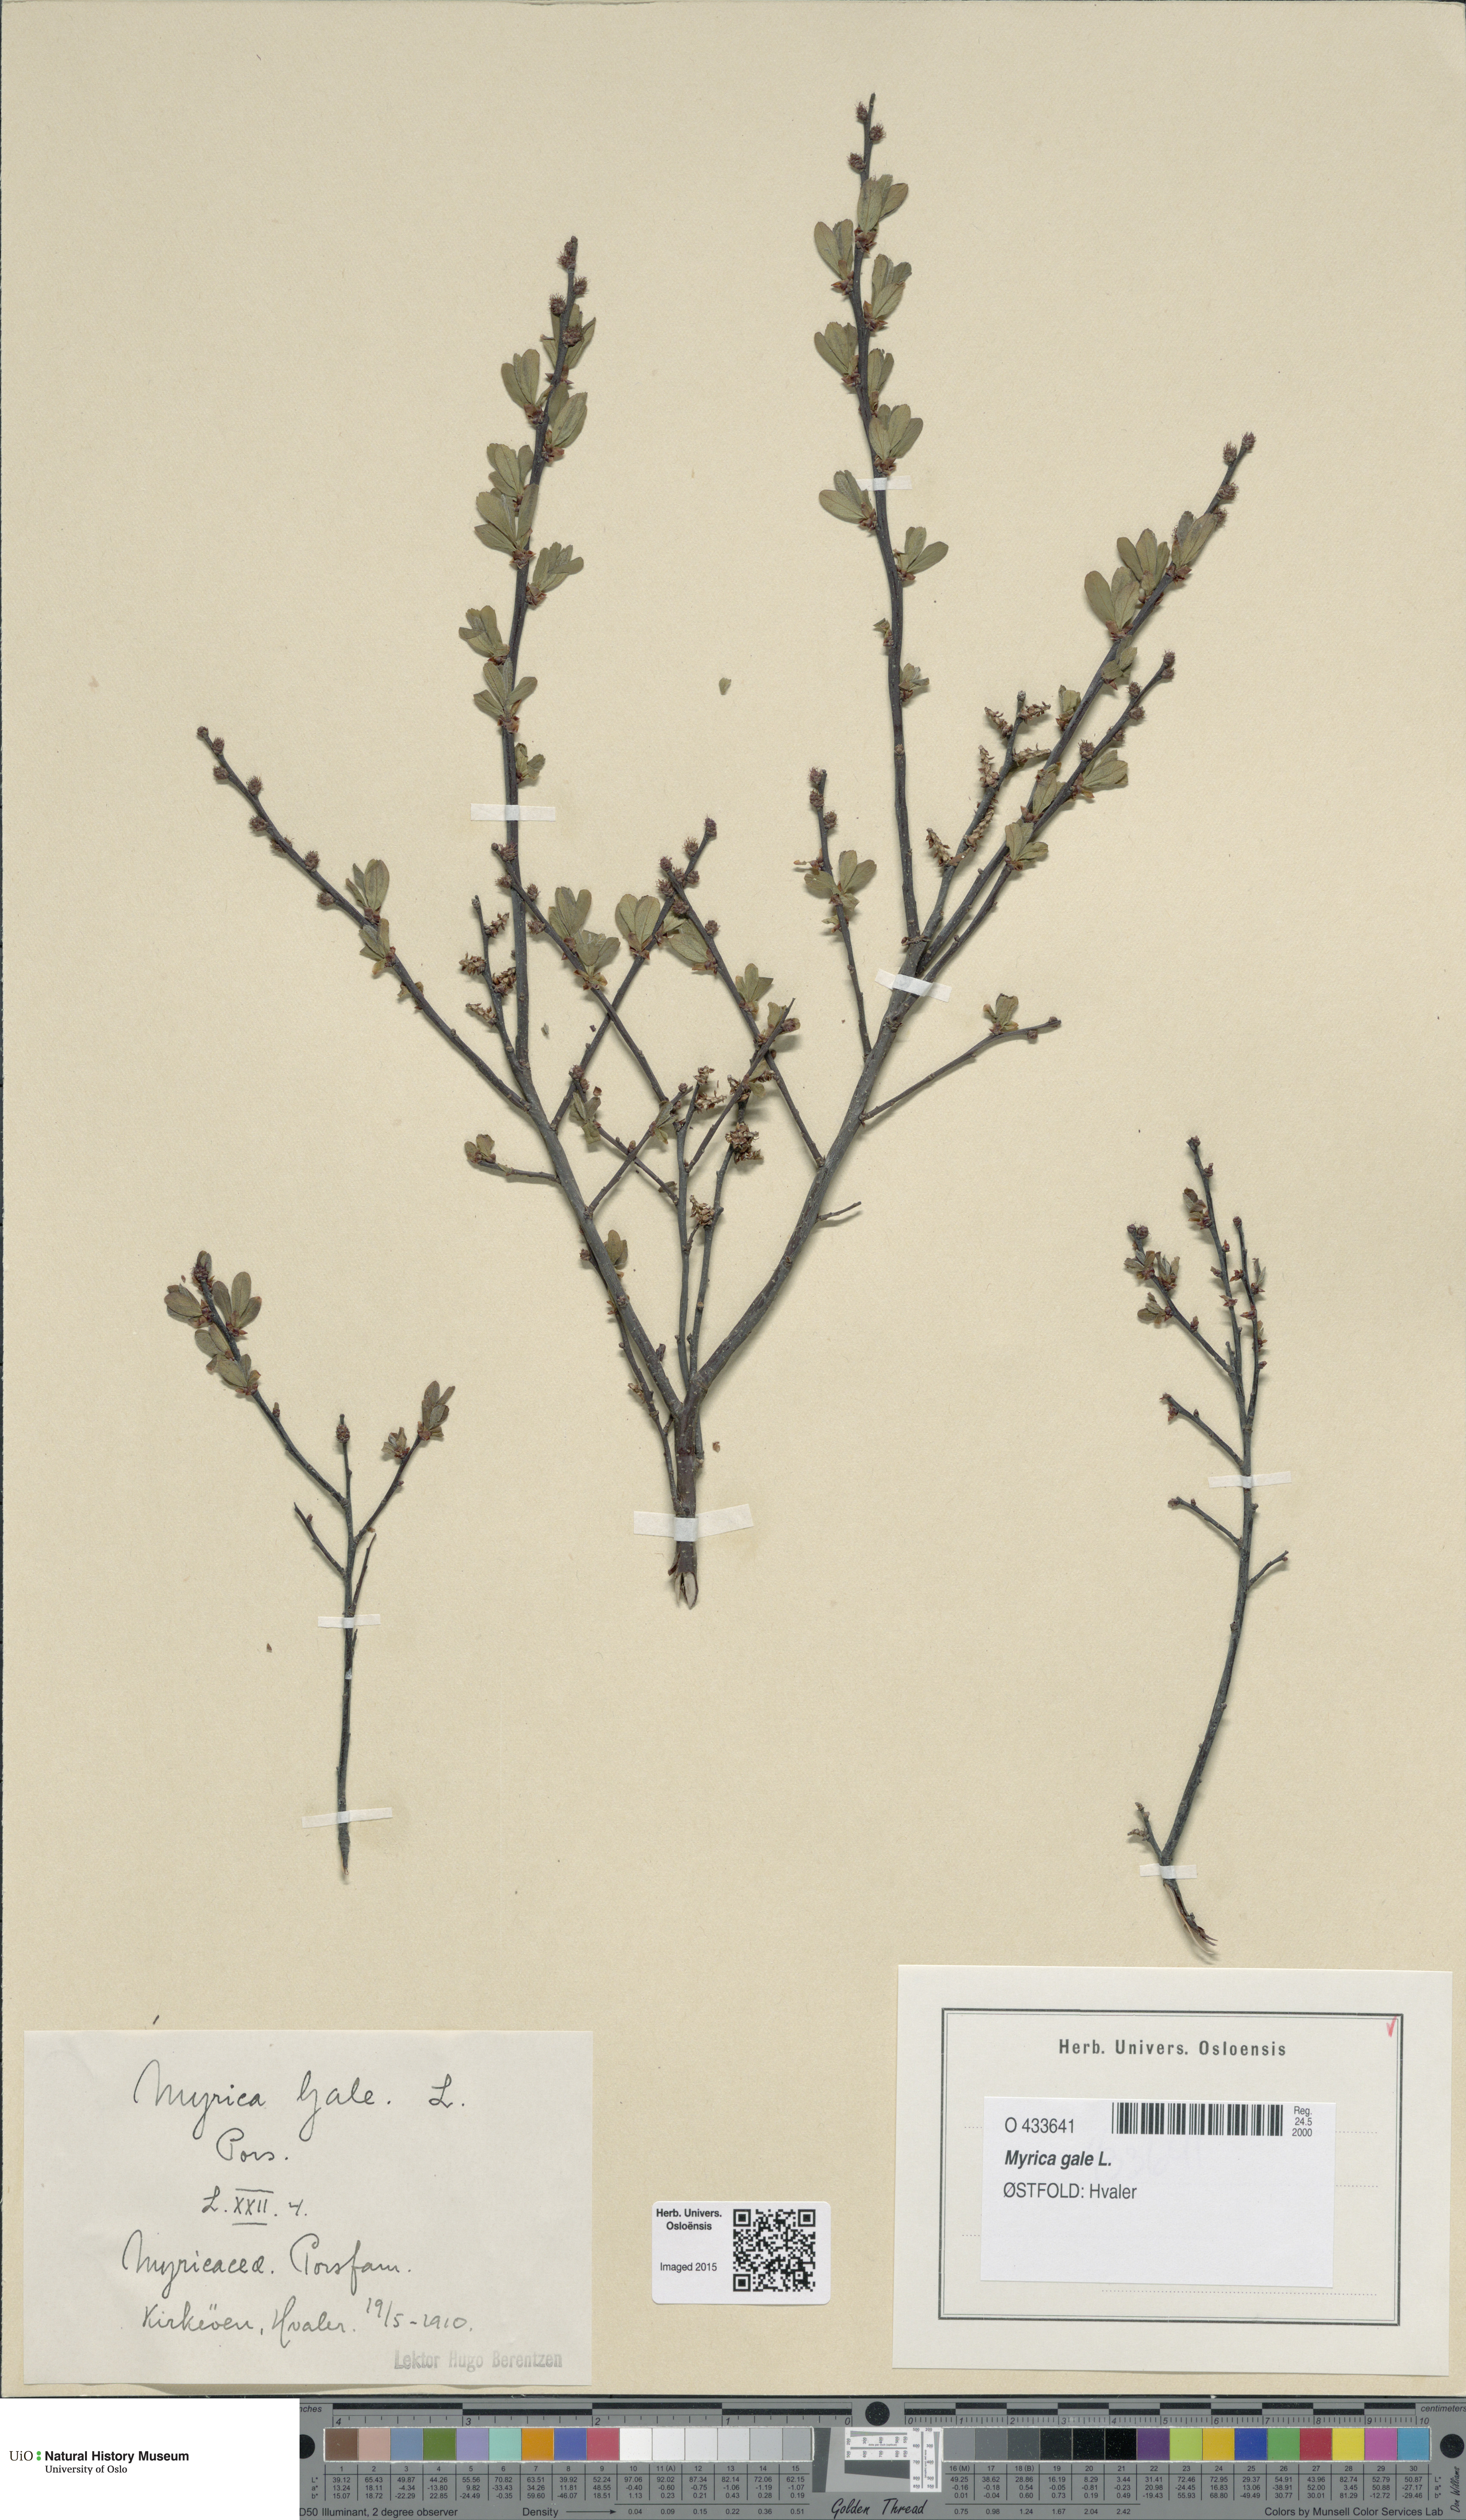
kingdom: Plantae
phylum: Tracheophyta
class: Magnoliopsida
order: Fagales
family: Myricaceae
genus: Myrica
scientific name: Myrica gale
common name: Sweet gale
